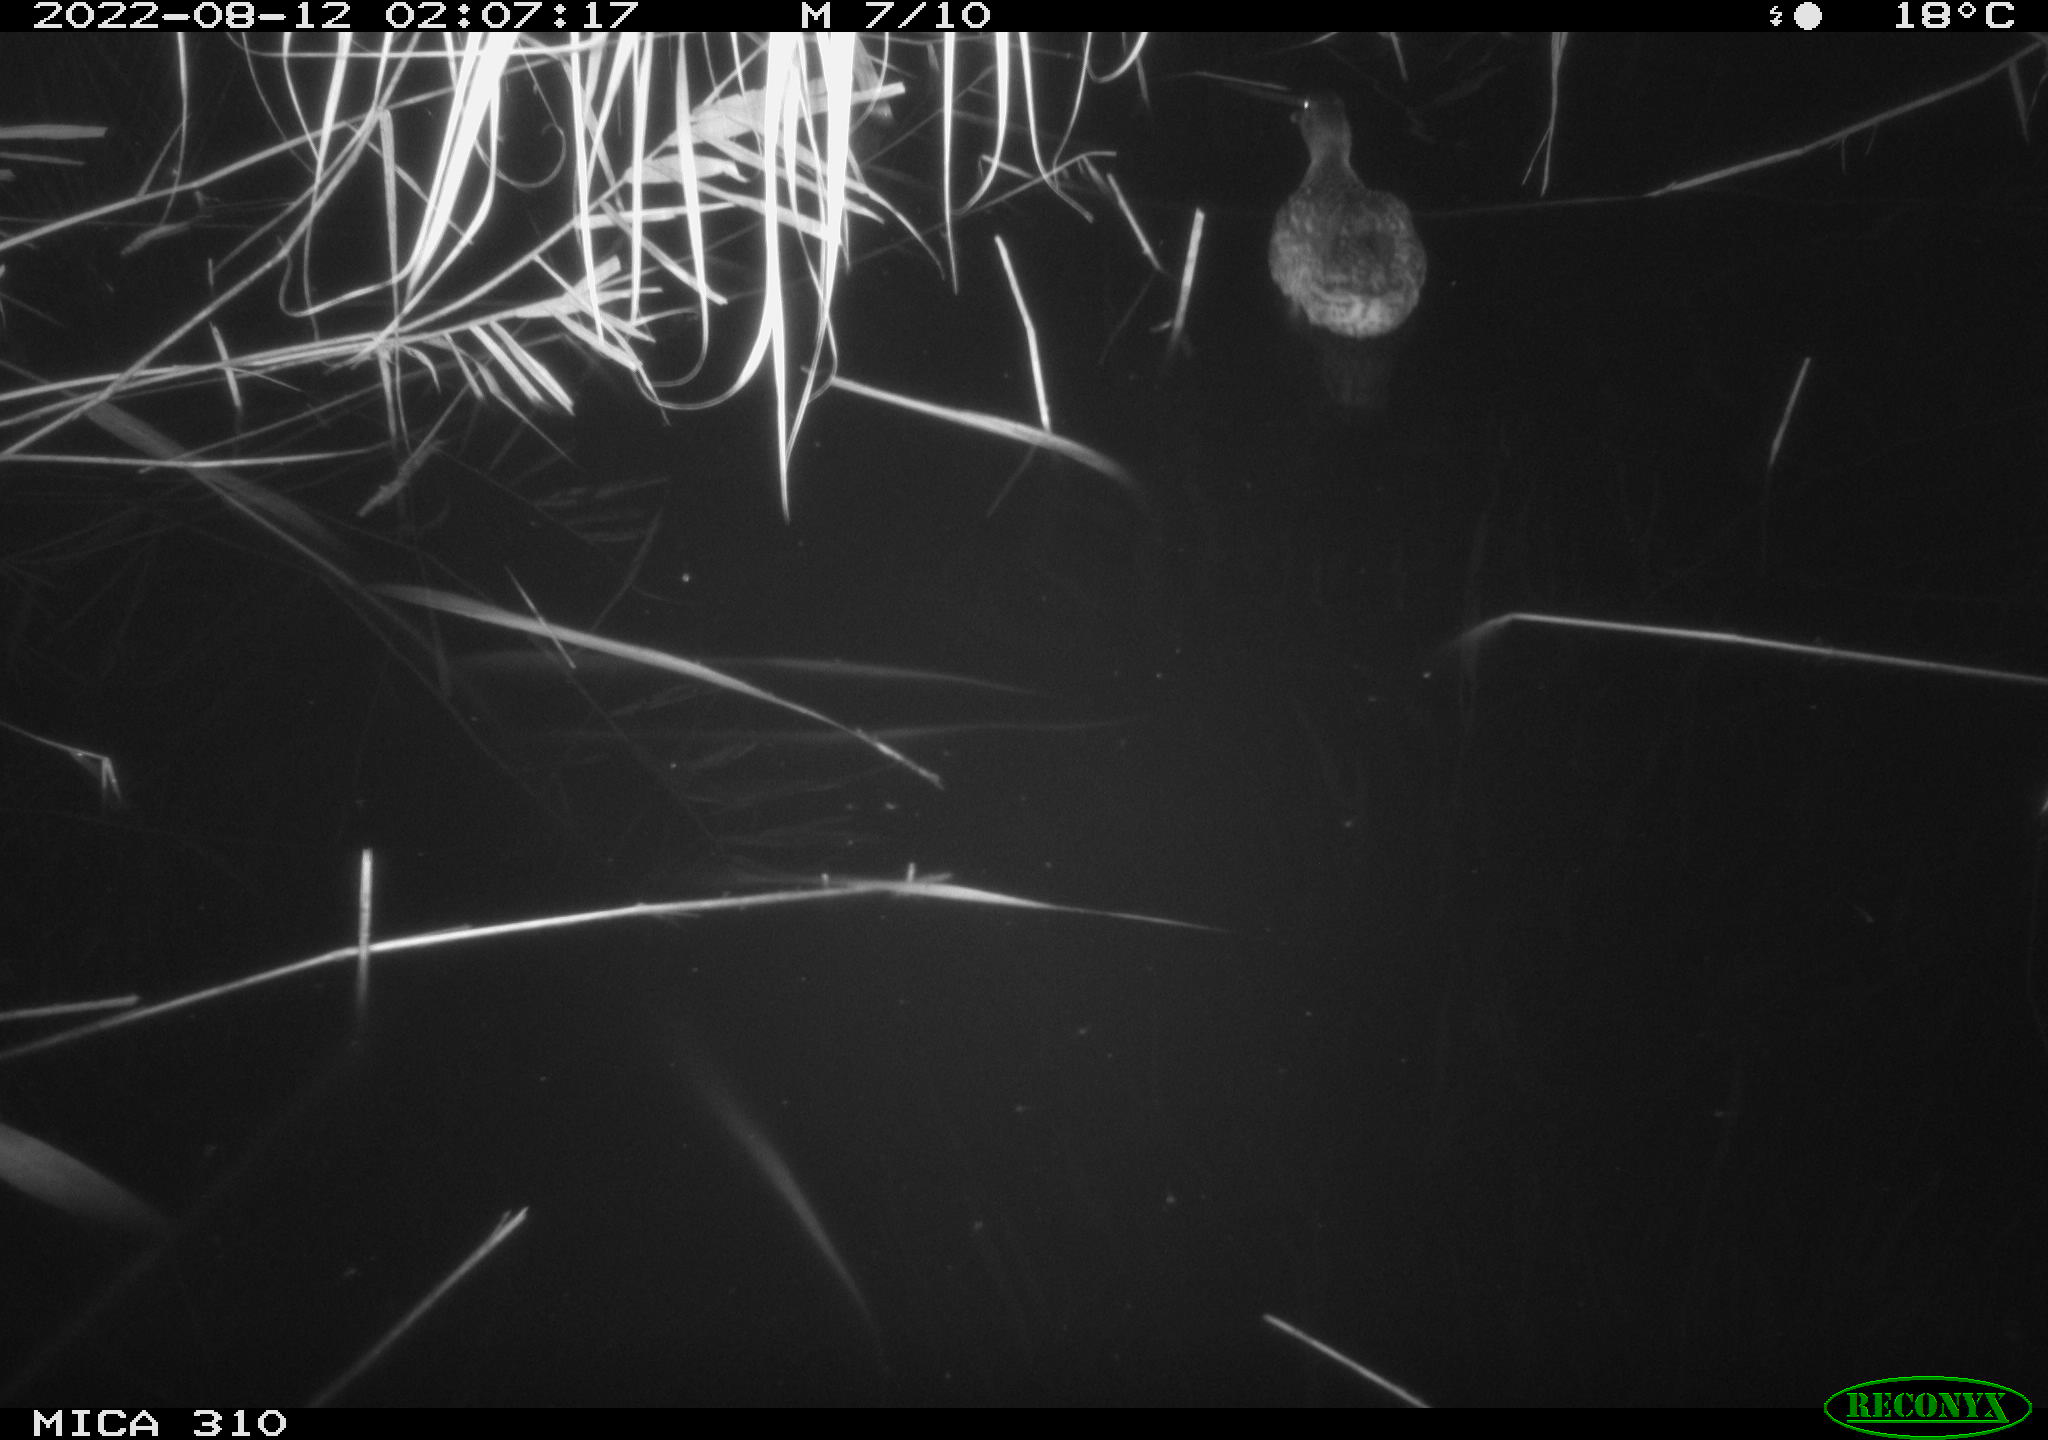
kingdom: Animalia
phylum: Chordata
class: Aves
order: Anseriformes
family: Anatidae
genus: Anas
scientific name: Anas platyrhynchos
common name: Mallard
